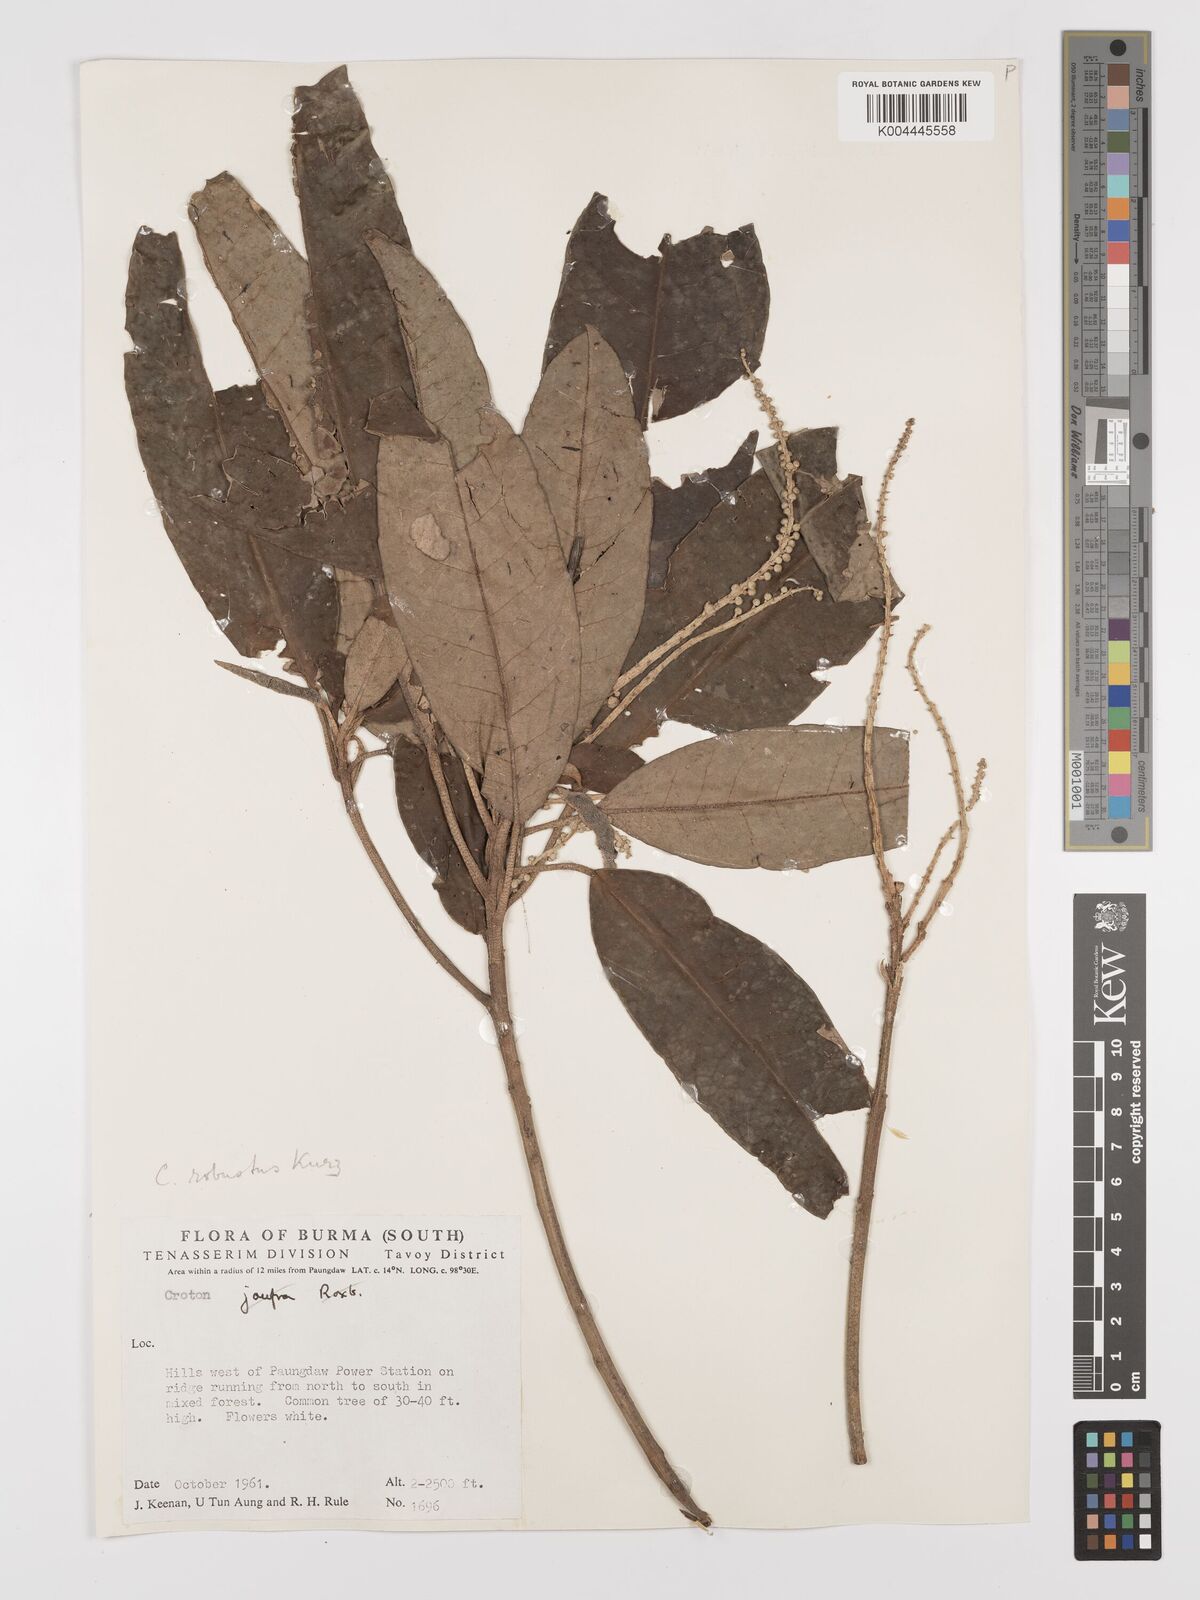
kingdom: Plantae
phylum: Tracheophyta
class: Magnoliopsida
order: Malpighiales
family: Euphorbiaceae
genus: Croton
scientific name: Croton robustus
